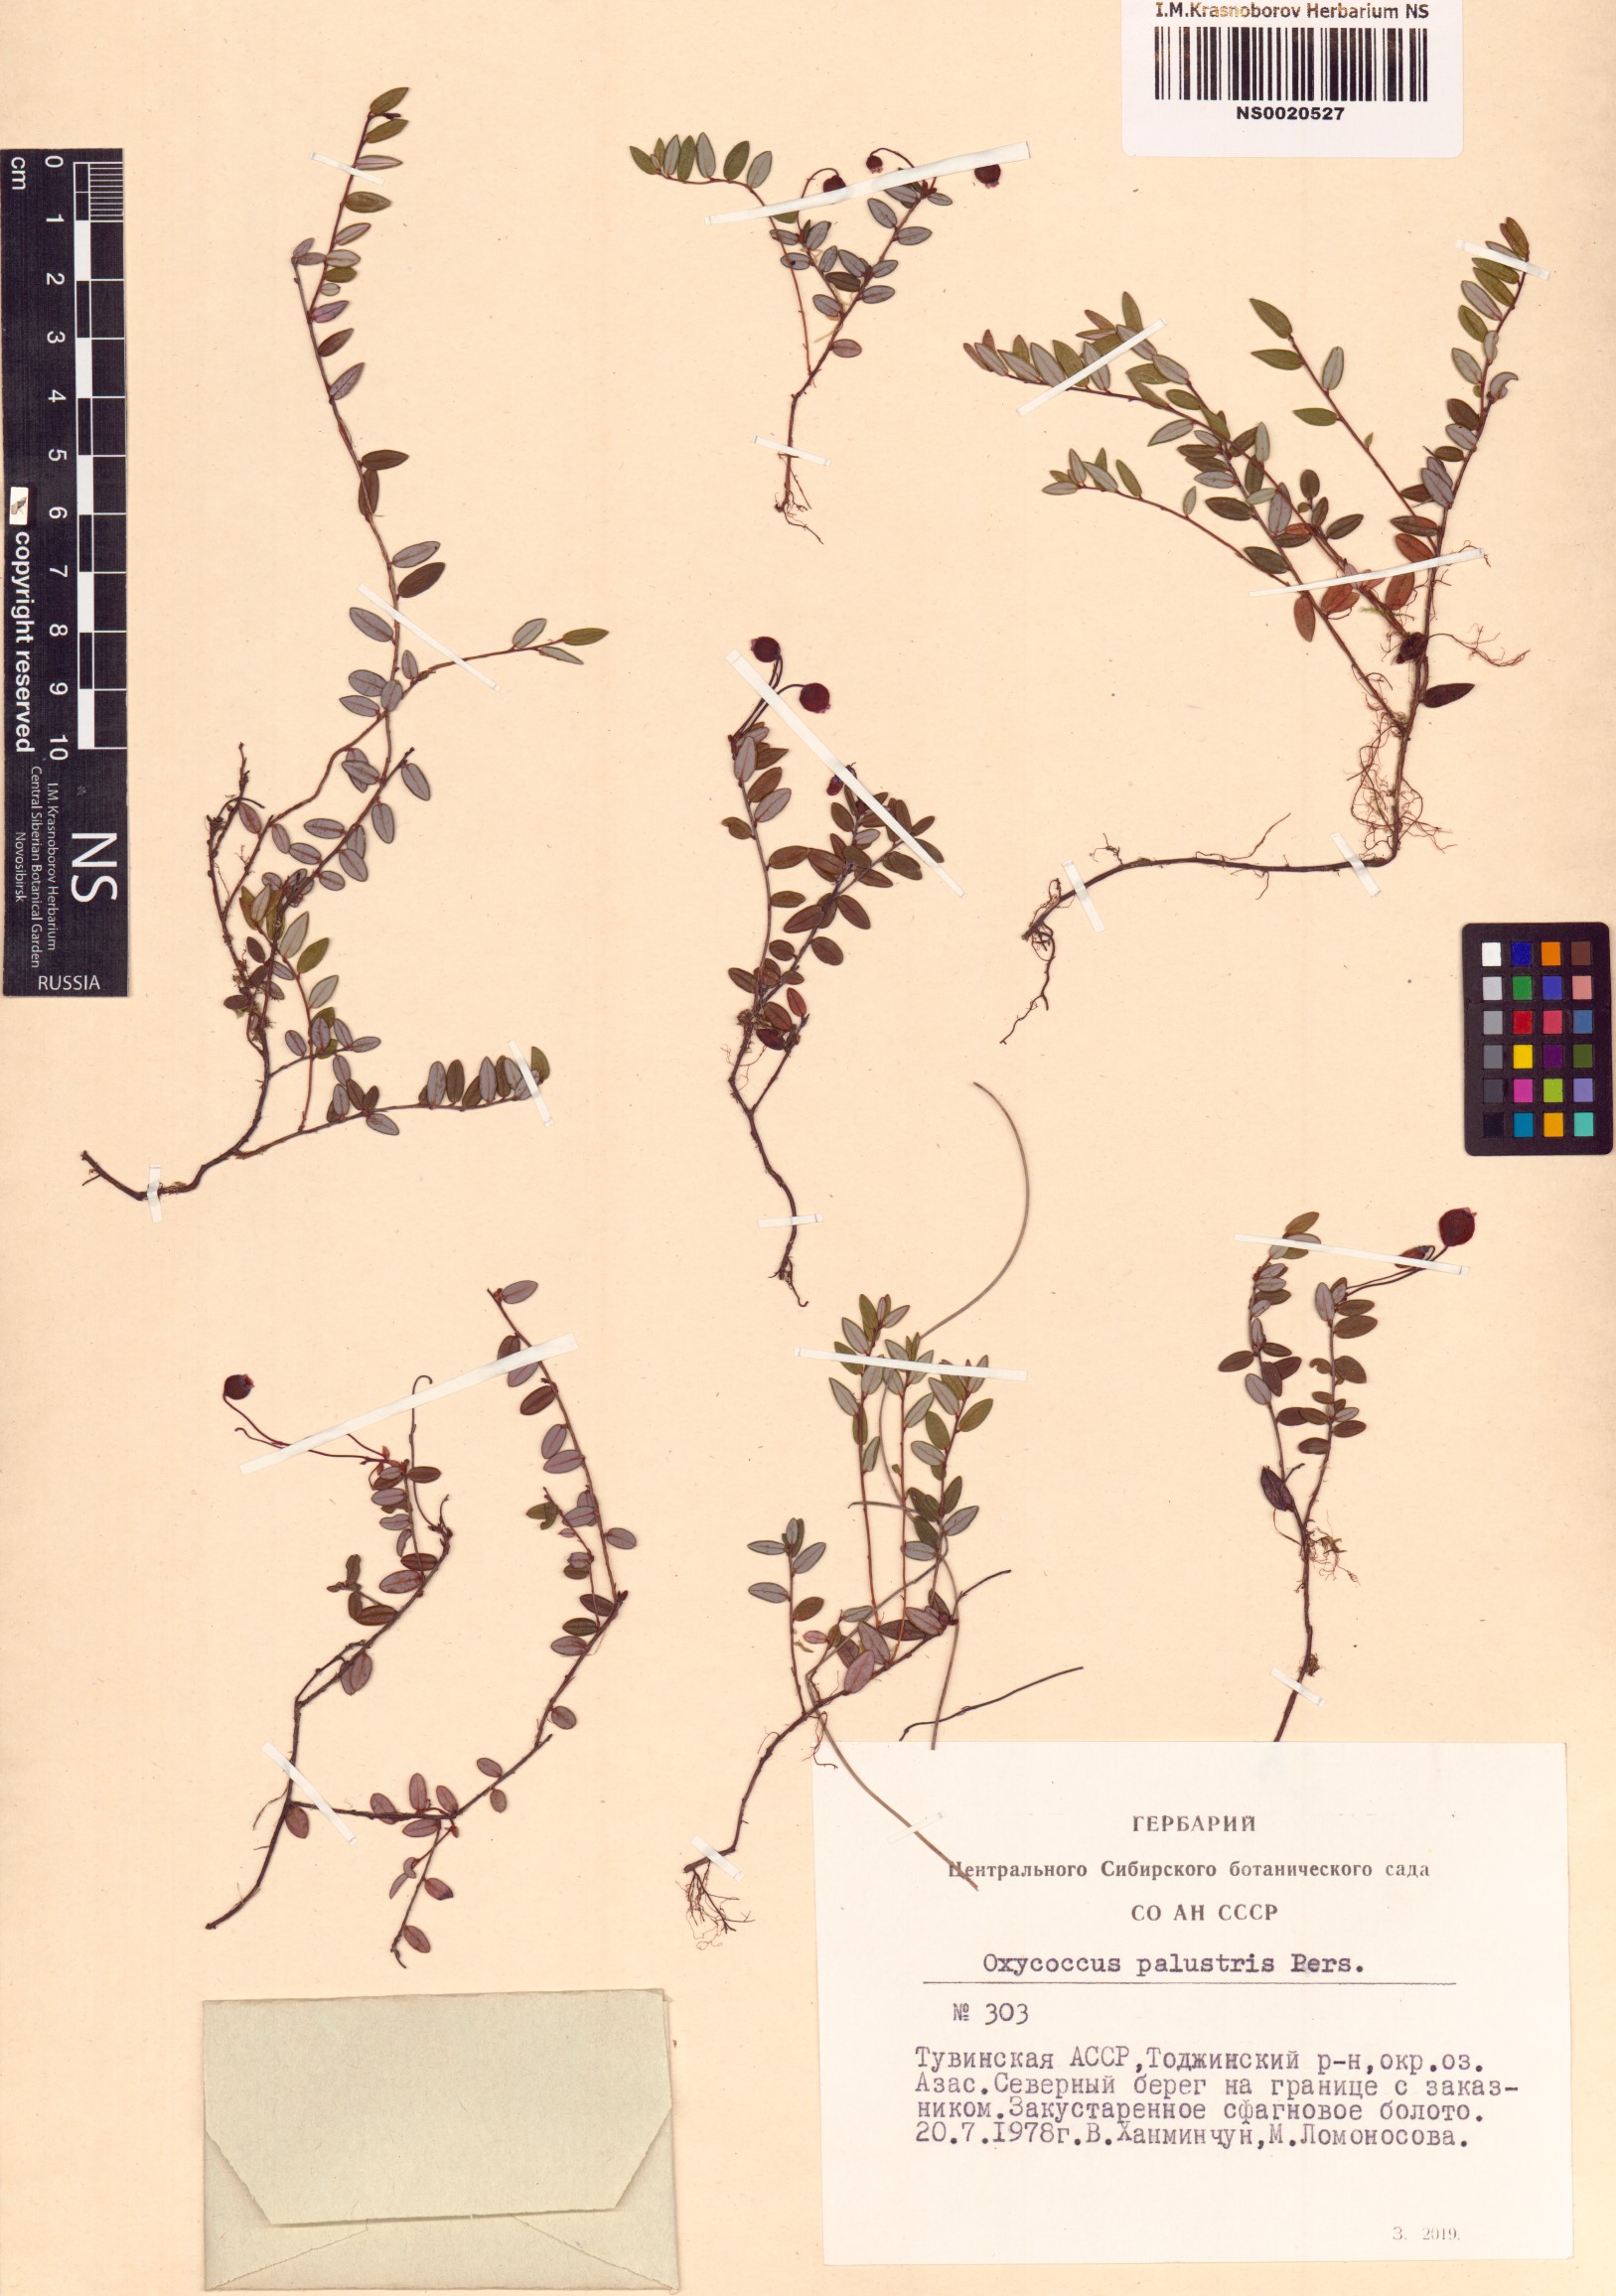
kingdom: Plantae
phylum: Tracheophyta
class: Magnoliopsida
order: Ericales
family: Ericaceae
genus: Vaccinium
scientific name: Vaccinium oxycoccos
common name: Cranberry
